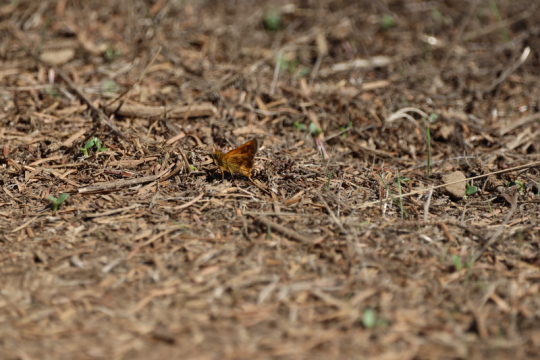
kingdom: Animalia
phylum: Arthropoda
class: Insecta
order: Lepidoptera
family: Hesperiidae
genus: Hylephila
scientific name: Hylephila phyleus
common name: Fiery Skipper
